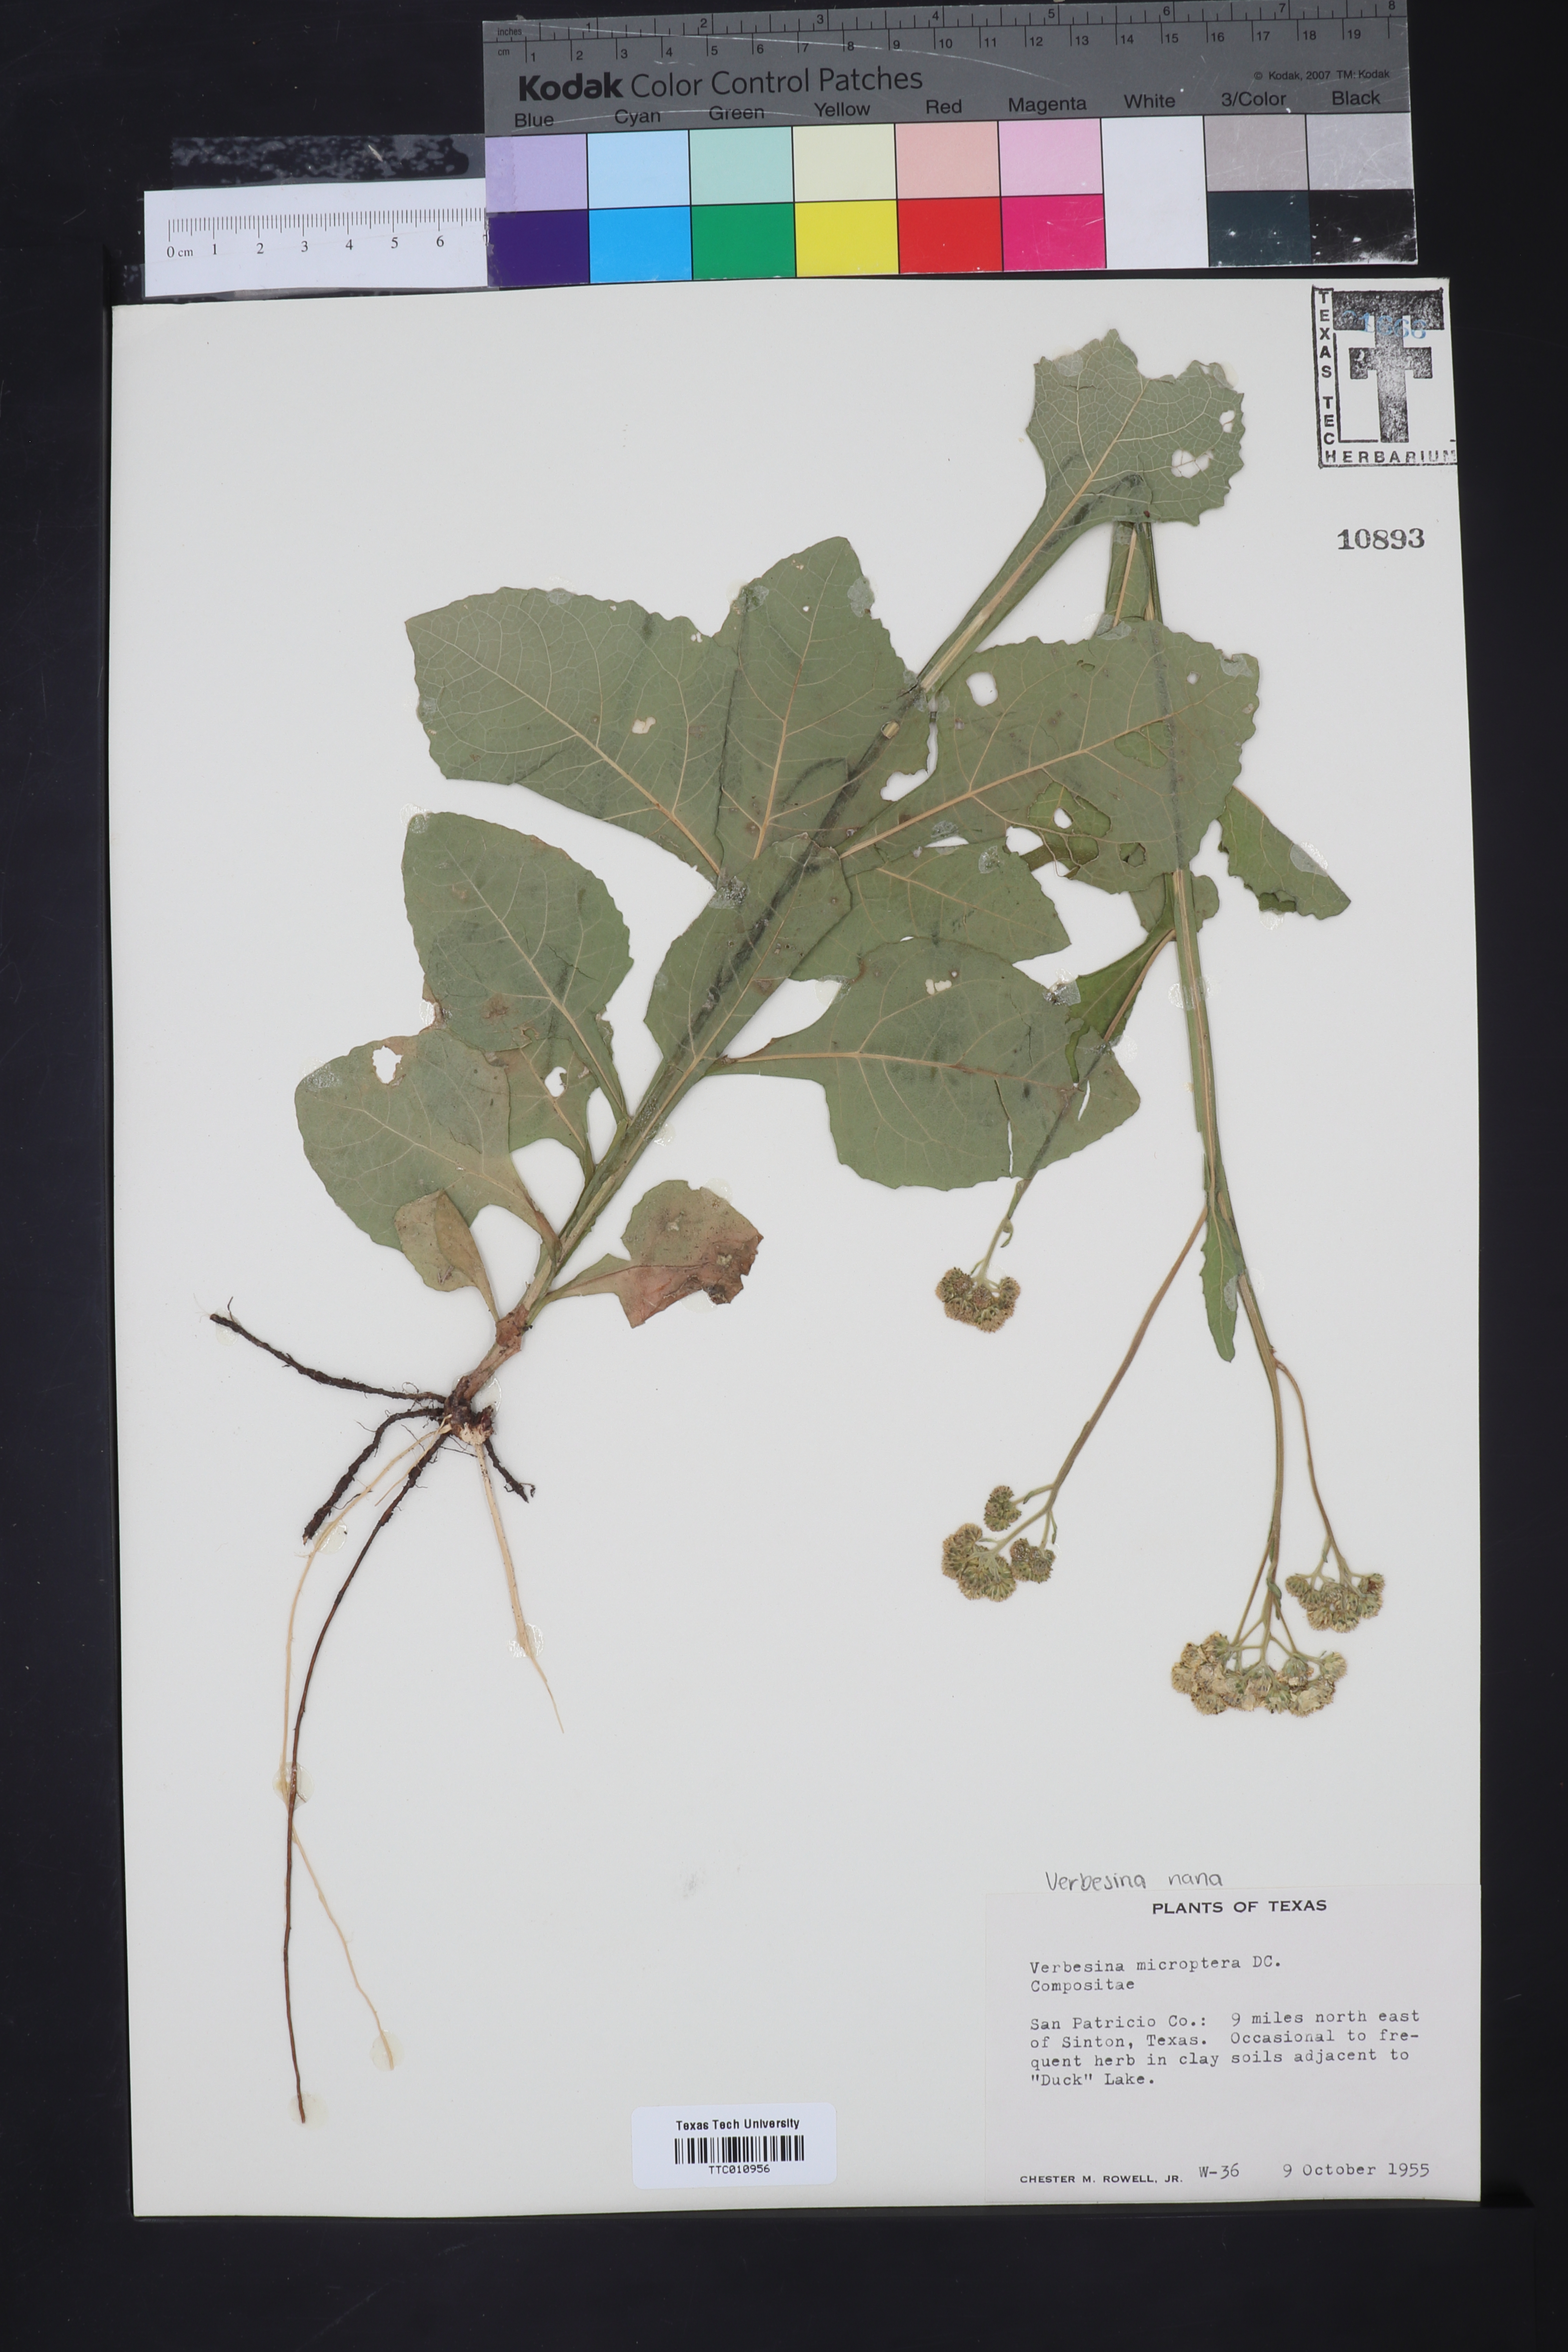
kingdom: Plantae
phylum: Tracheophyta
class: Magnoliopsida
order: Asterales
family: Asteraceae
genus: Verbesina
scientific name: Verbesina encelioides
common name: Golden crownbeard
